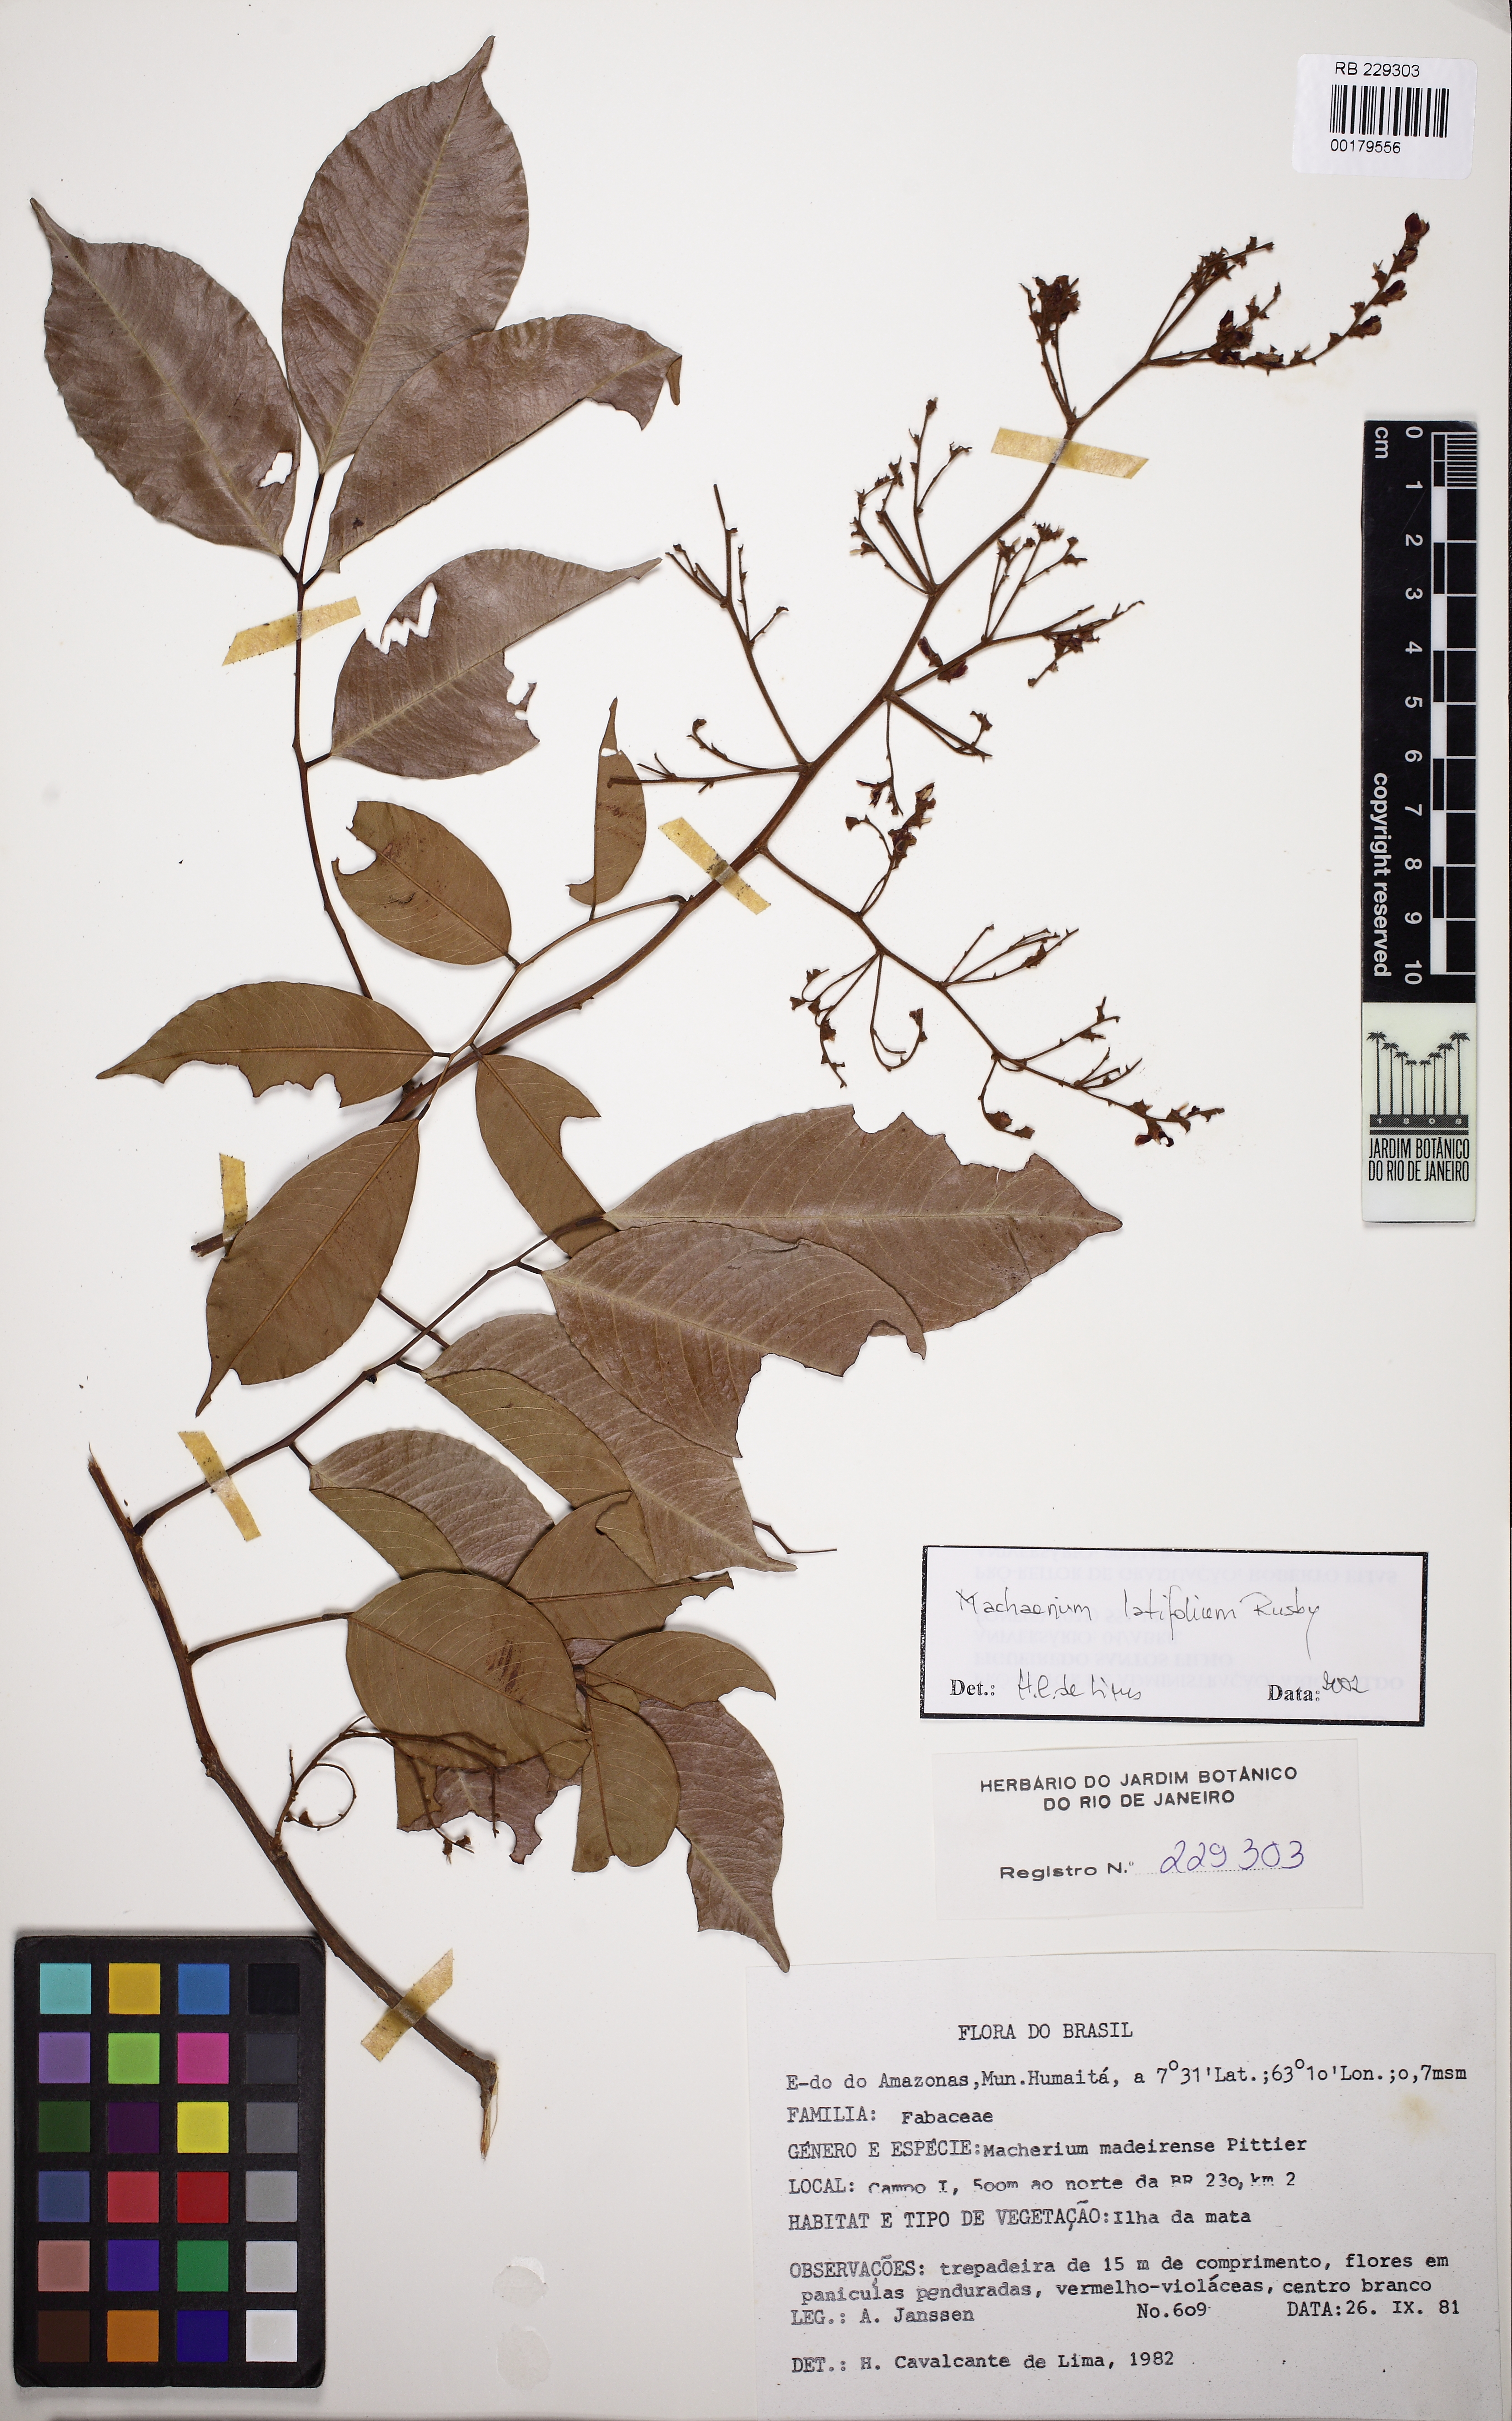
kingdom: Plantae
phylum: Tracheophyta
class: Magnoliopsida
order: Fabales
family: Fabaceae
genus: Machaerium
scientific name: Machaerium madeirense
